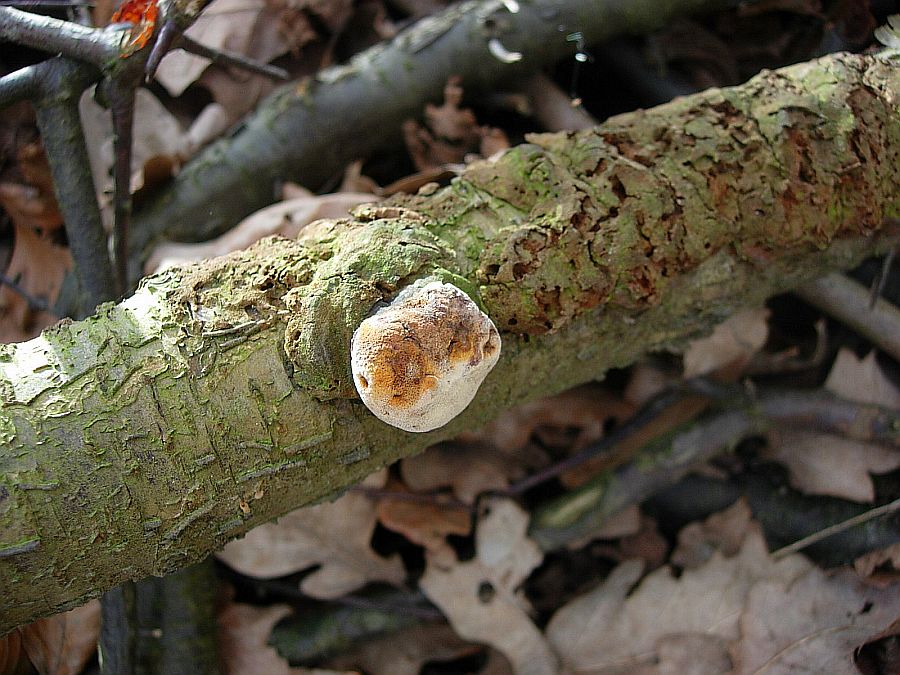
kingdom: Fungi
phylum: Basidiomycota
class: Agaricomycetes
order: Hymenochaetales
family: Hymenochaetaceae
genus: Phellinus
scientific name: Phellinus pomaceus
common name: blomme-ildporesvamp
